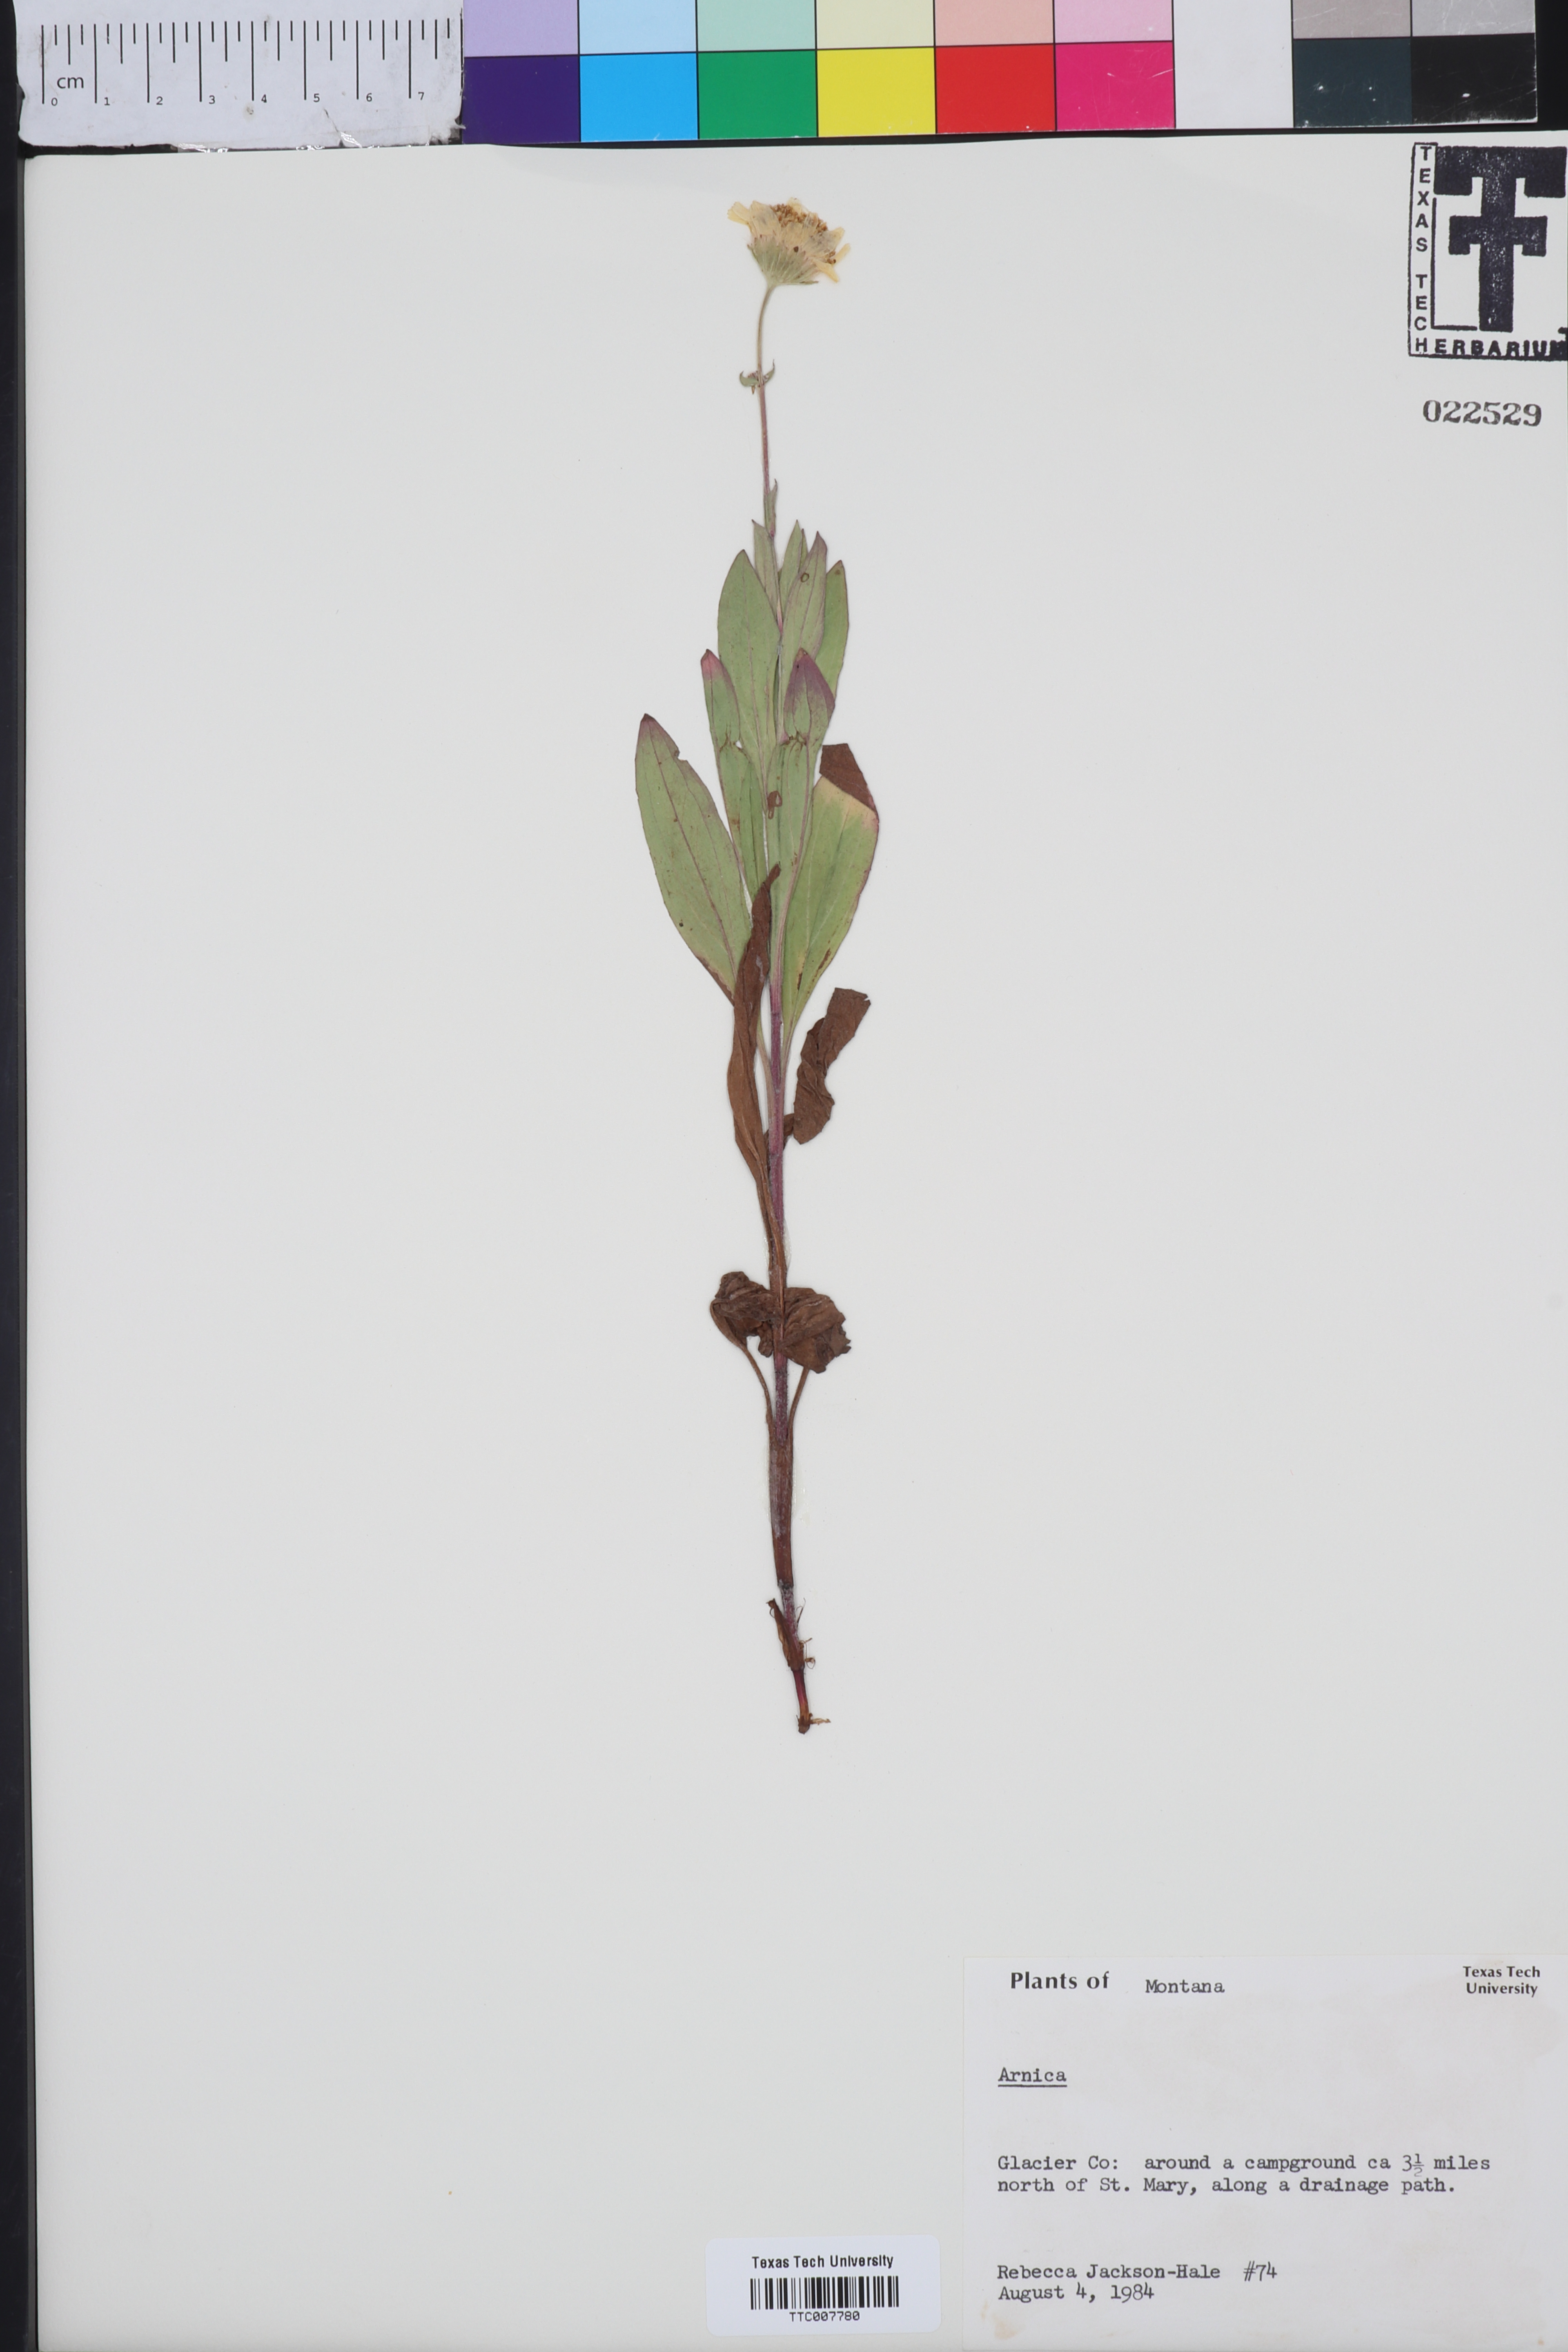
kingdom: Plantae
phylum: Tracheophyta
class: Magnoliopsida
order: Asterales
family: Asteraceae
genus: Arnica
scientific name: Arnica
